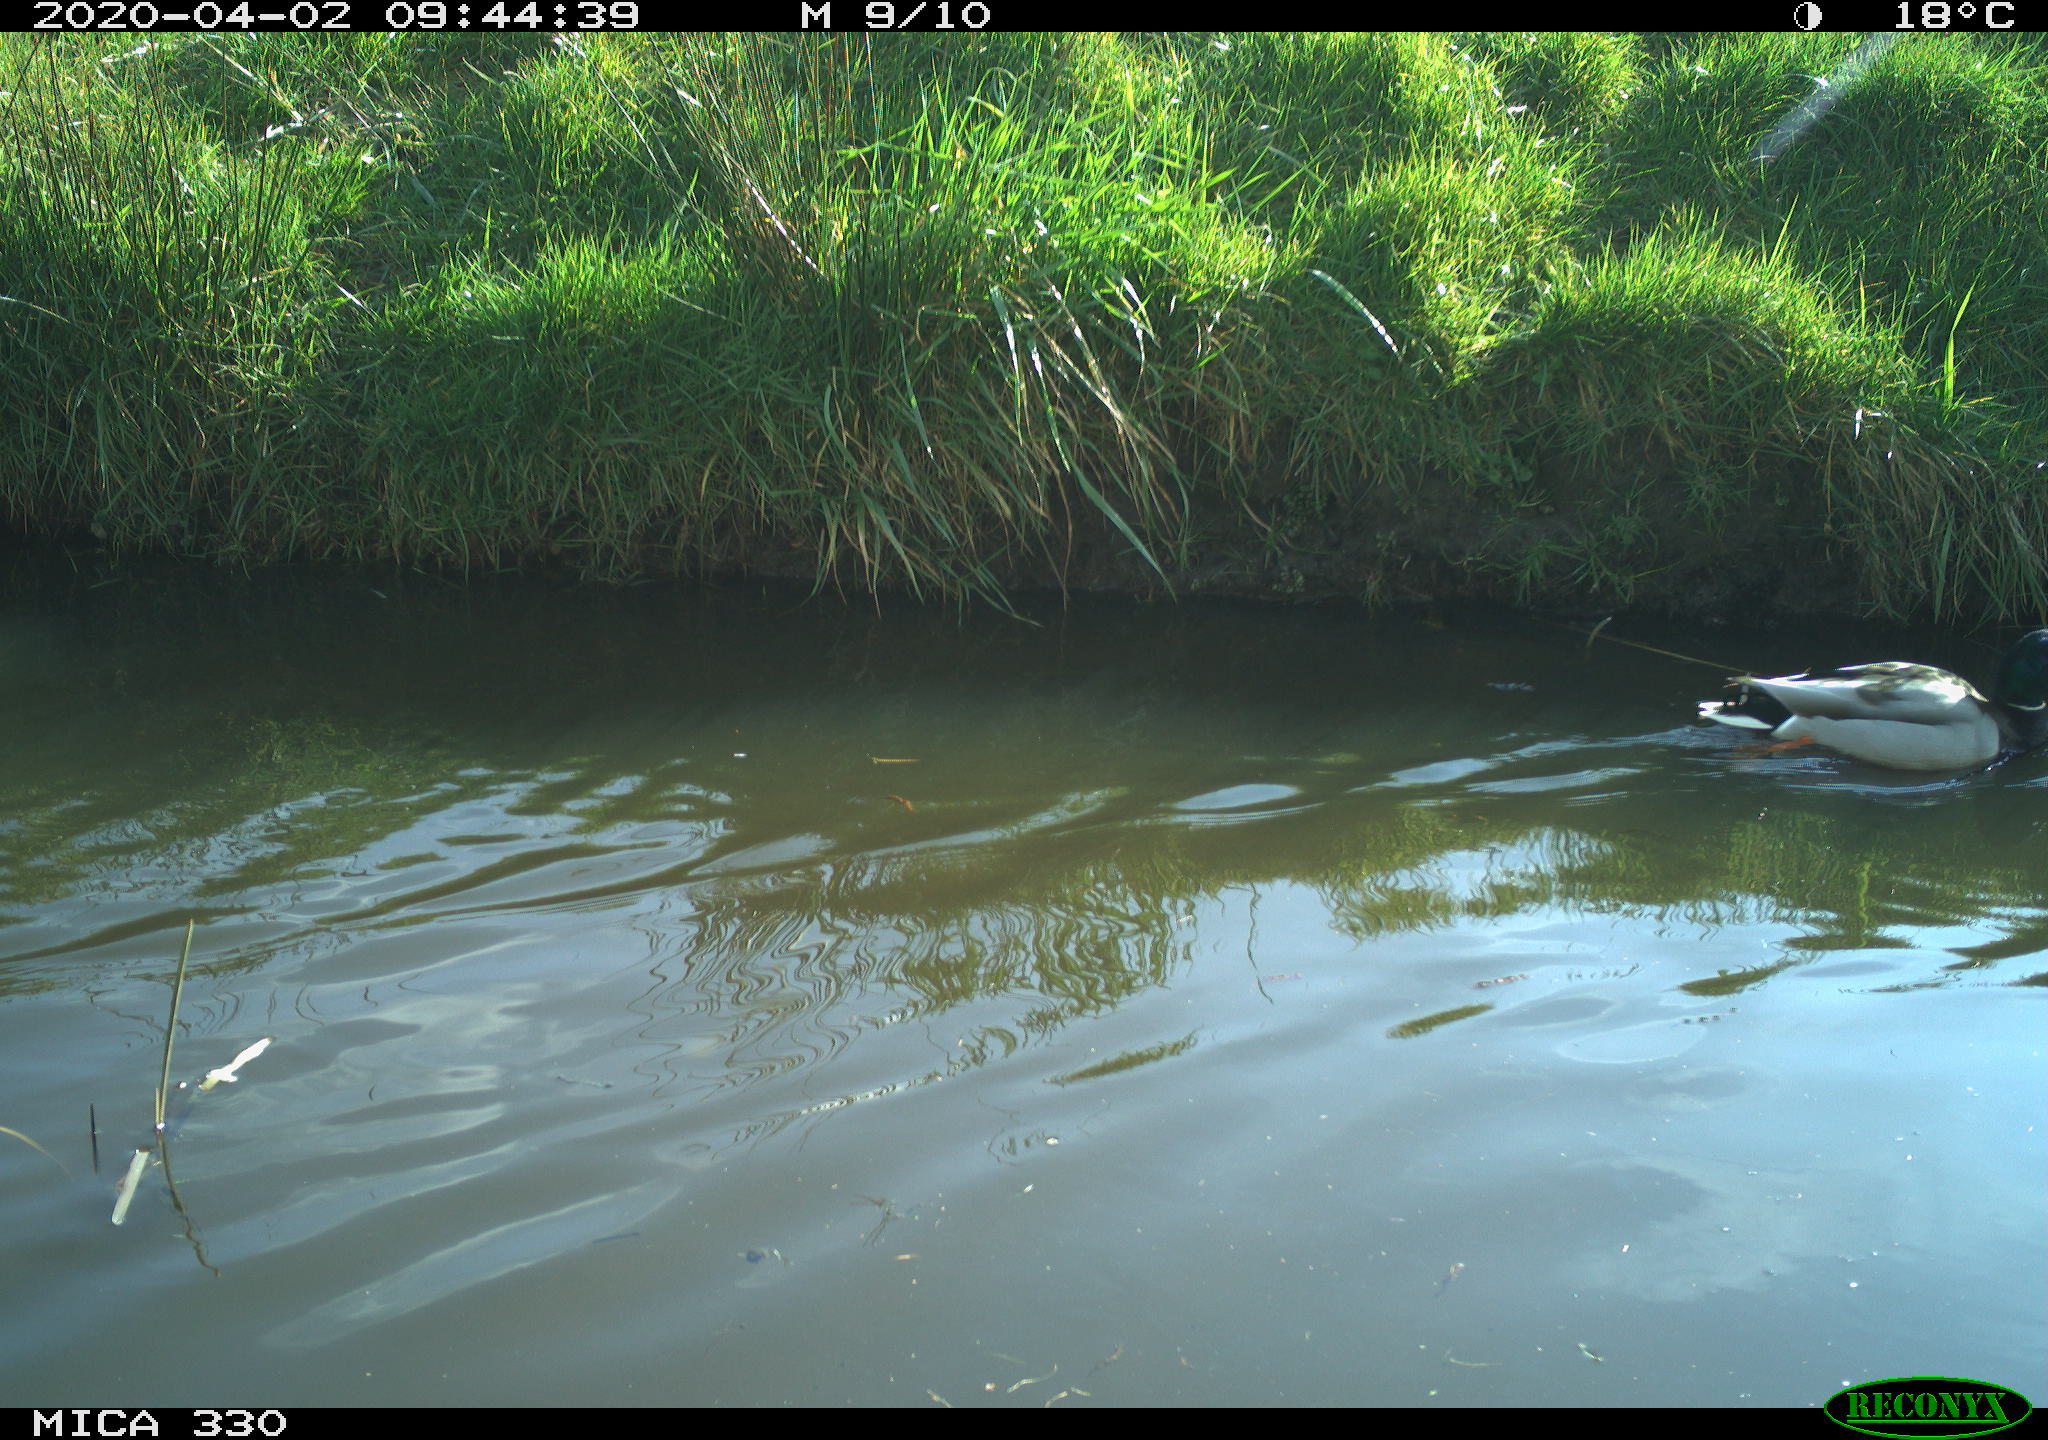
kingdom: Animalia
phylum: Chordata
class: Aves
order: Anseriformes
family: Anatidae
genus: Anas
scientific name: Anas platyrhynchos
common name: Mallard
